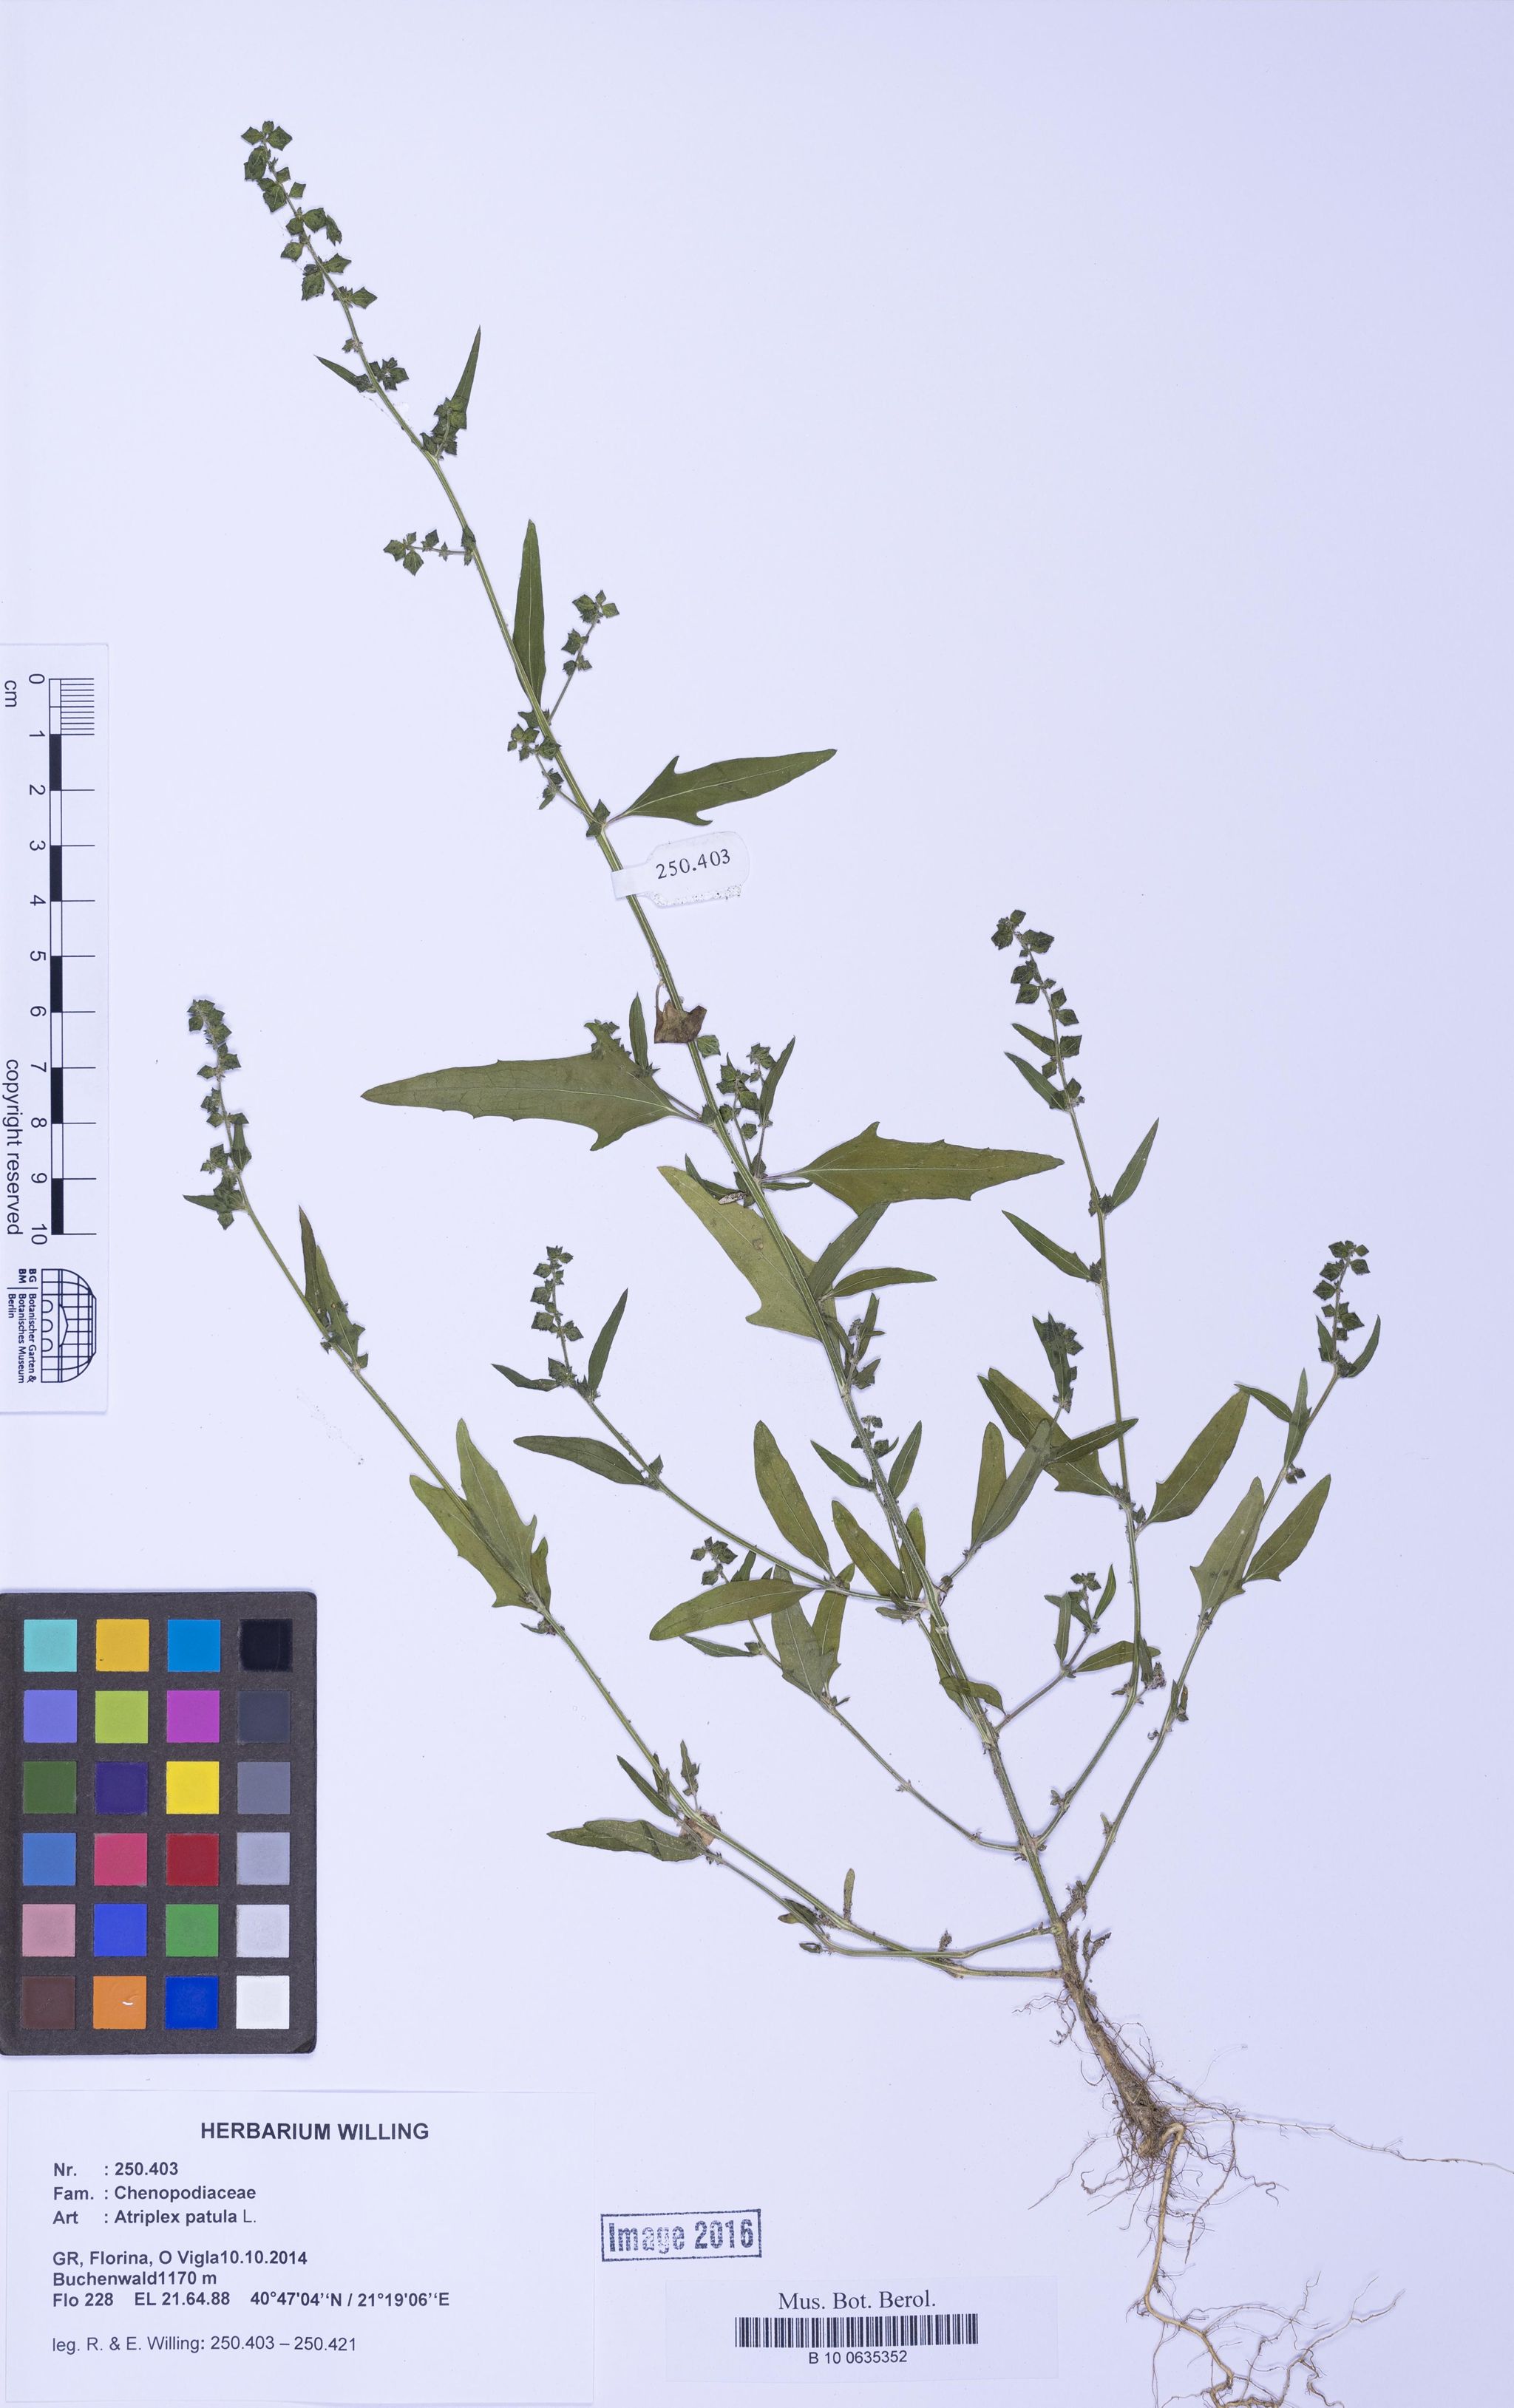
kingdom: Plantae
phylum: Tracheophyta
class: Magnoliopsida
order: Caryophyllales
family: Amaranthaceae
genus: Atriplex
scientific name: Atriplex patula
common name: Common orache
